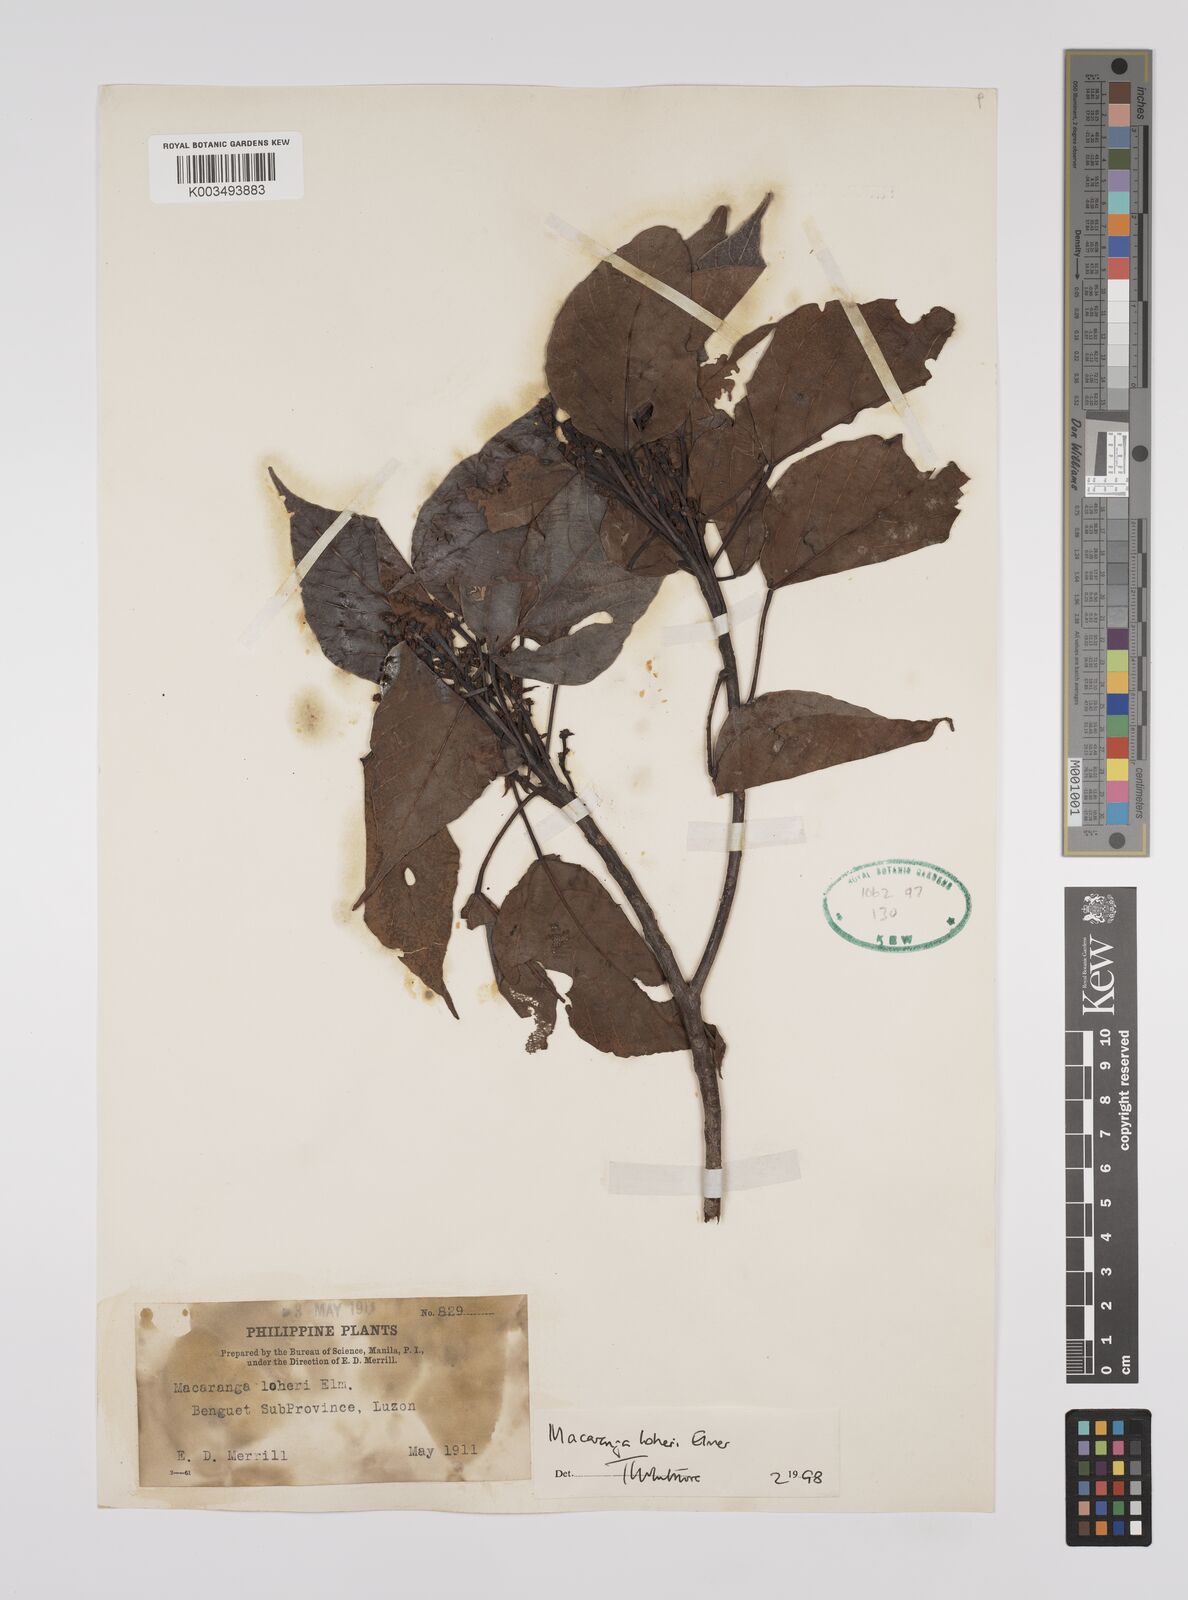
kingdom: Plantae
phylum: Tracheophyta
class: Magnoliopsida
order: Malpighiales
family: Euphorbiaceae
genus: Macaranga
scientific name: Macaranga loheri
